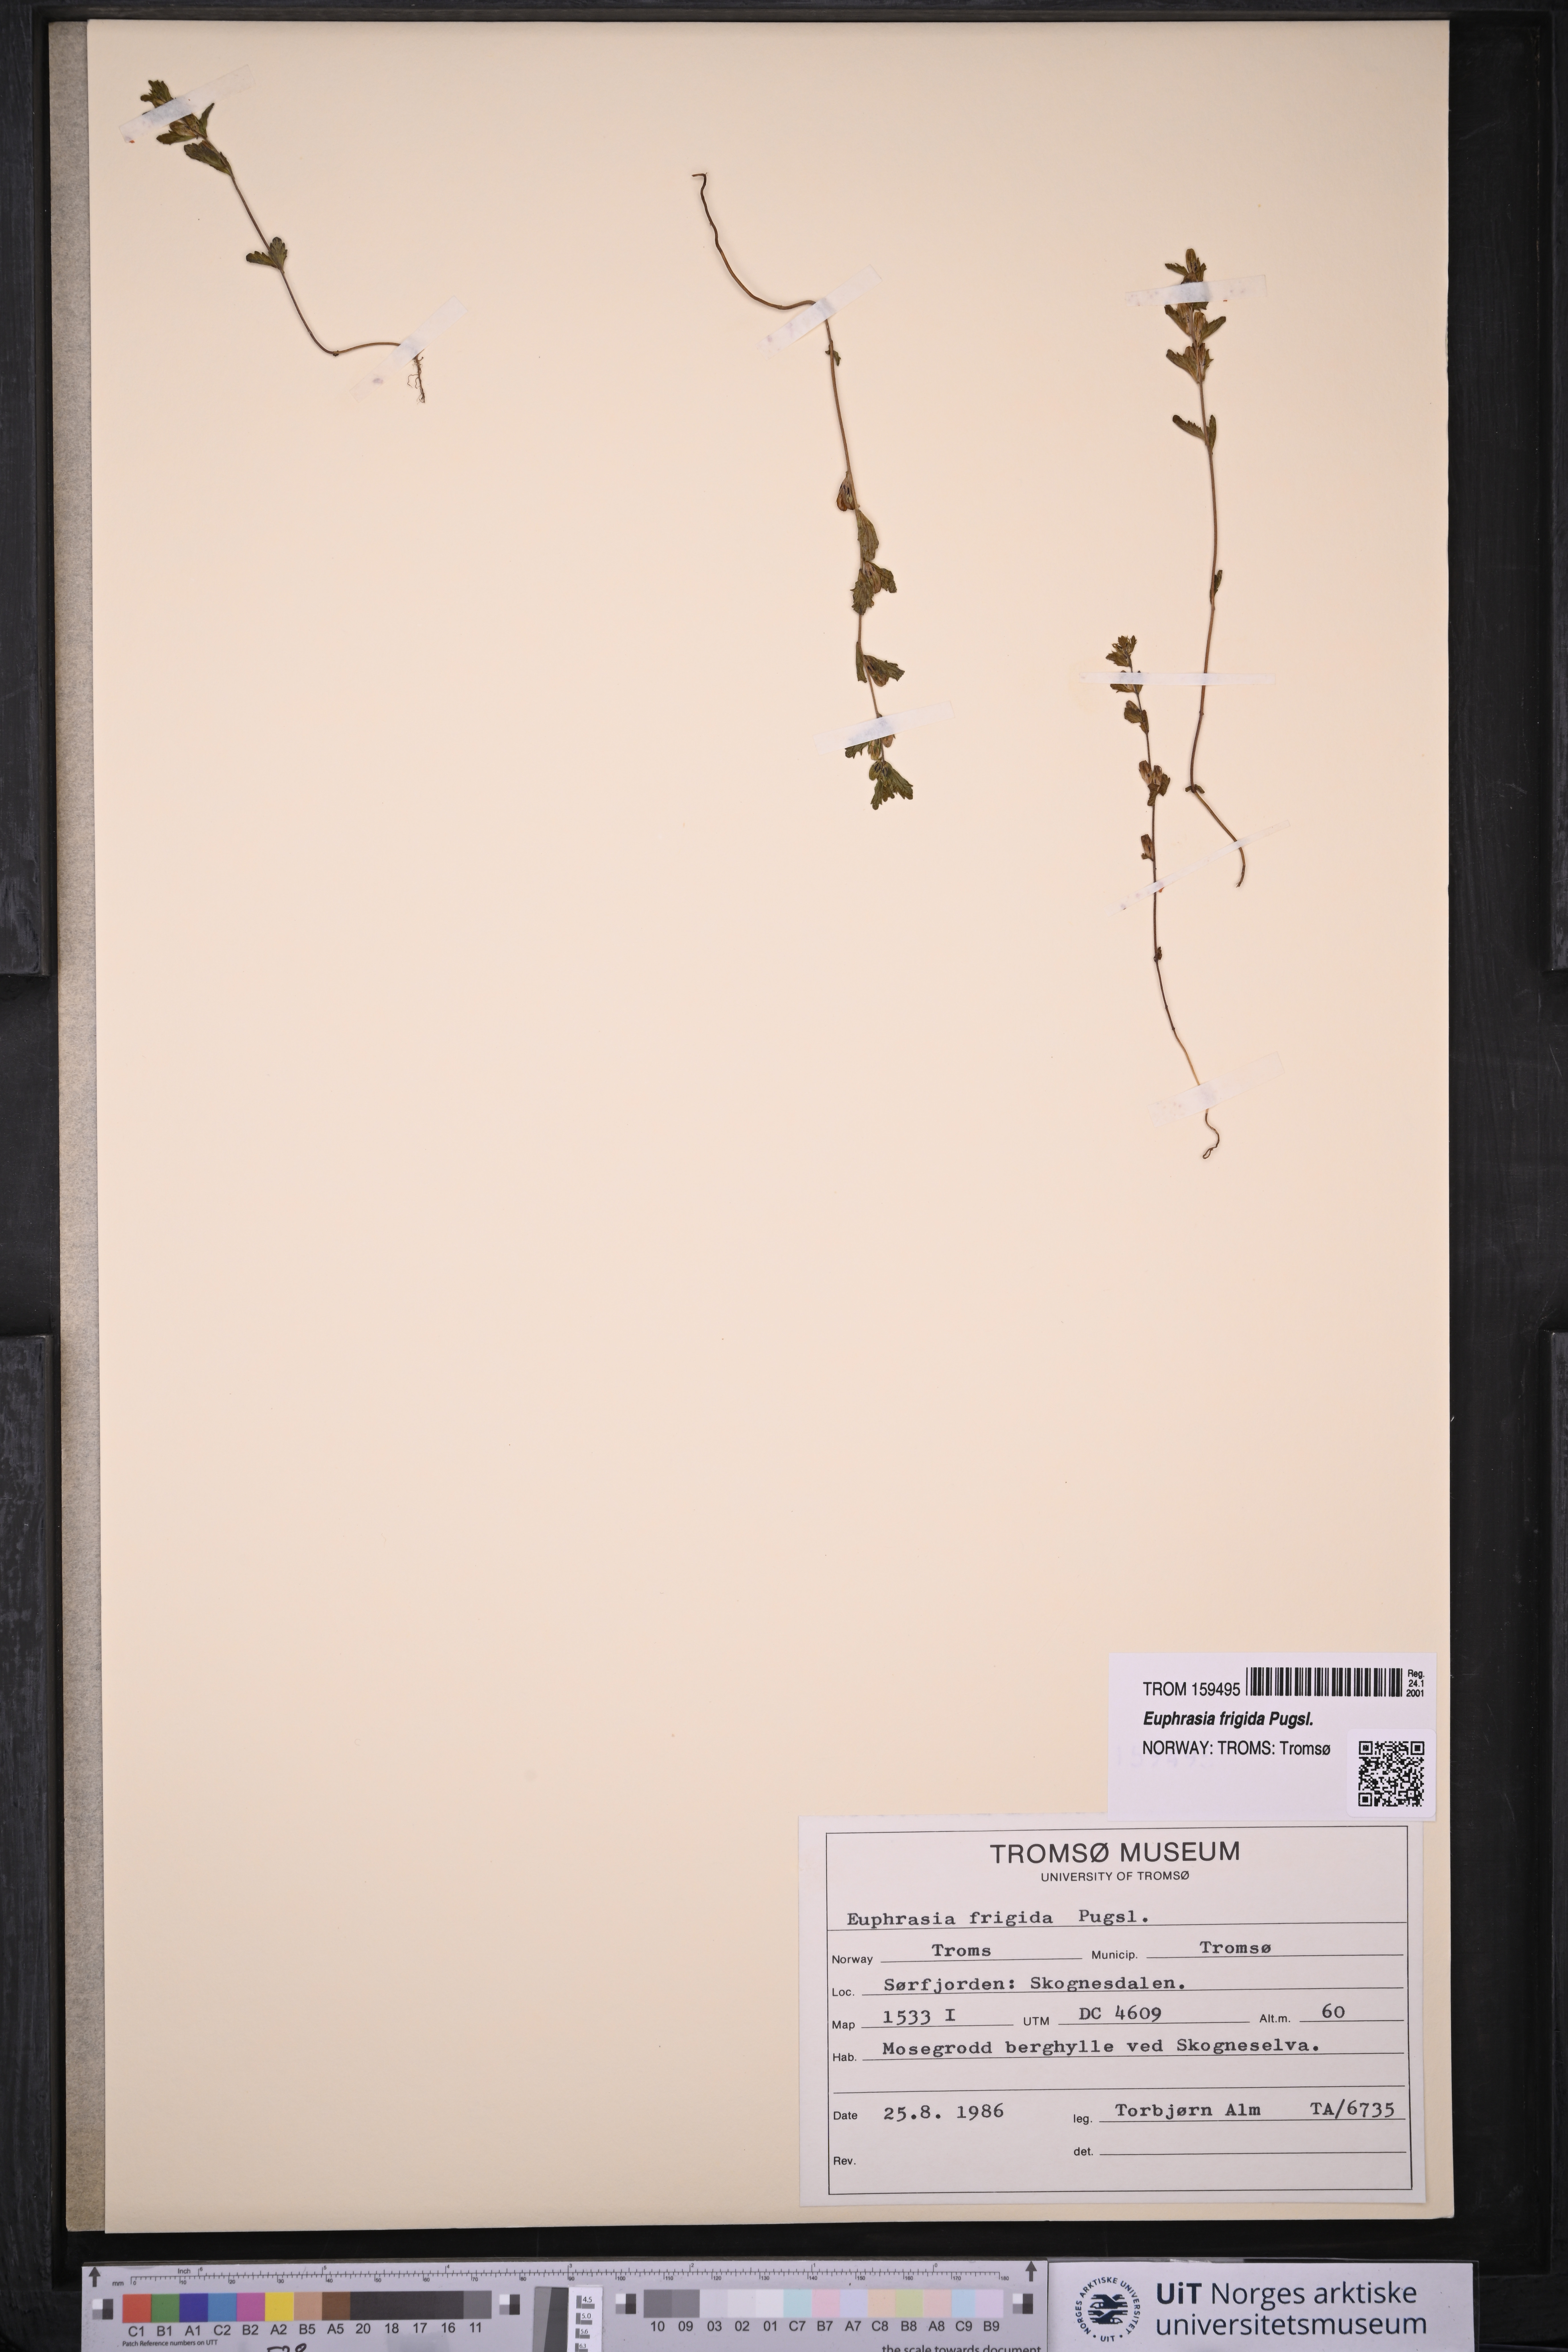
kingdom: Plantae
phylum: Tracheophyta
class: Magnoliopsida
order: Lamiales
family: Orobanchaceae
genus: Euphrasia
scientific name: Euphrasia frigida
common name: An eyebright
